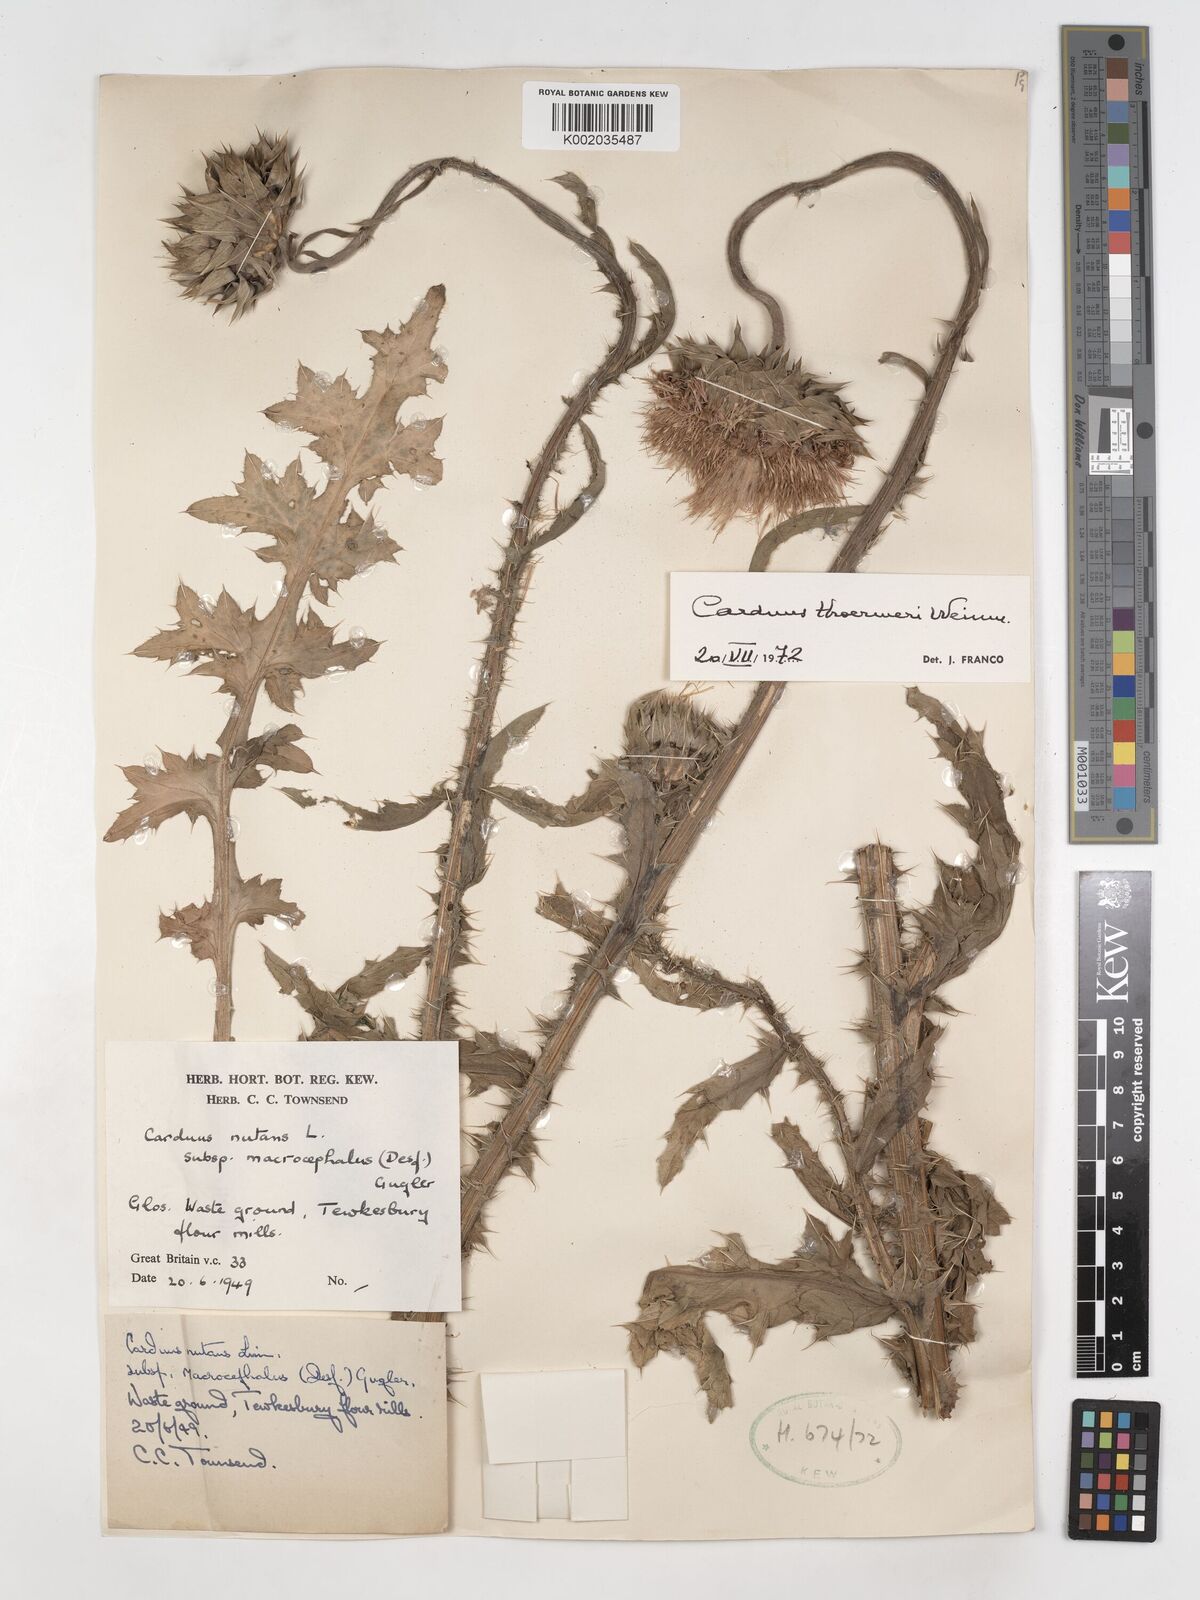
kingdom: Plantae
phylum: Tracheophyta
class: Magnoliopsida
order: Asterales
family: Asteraceae
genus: Carduus
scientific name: Carduus nutans
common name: Musk thistle
